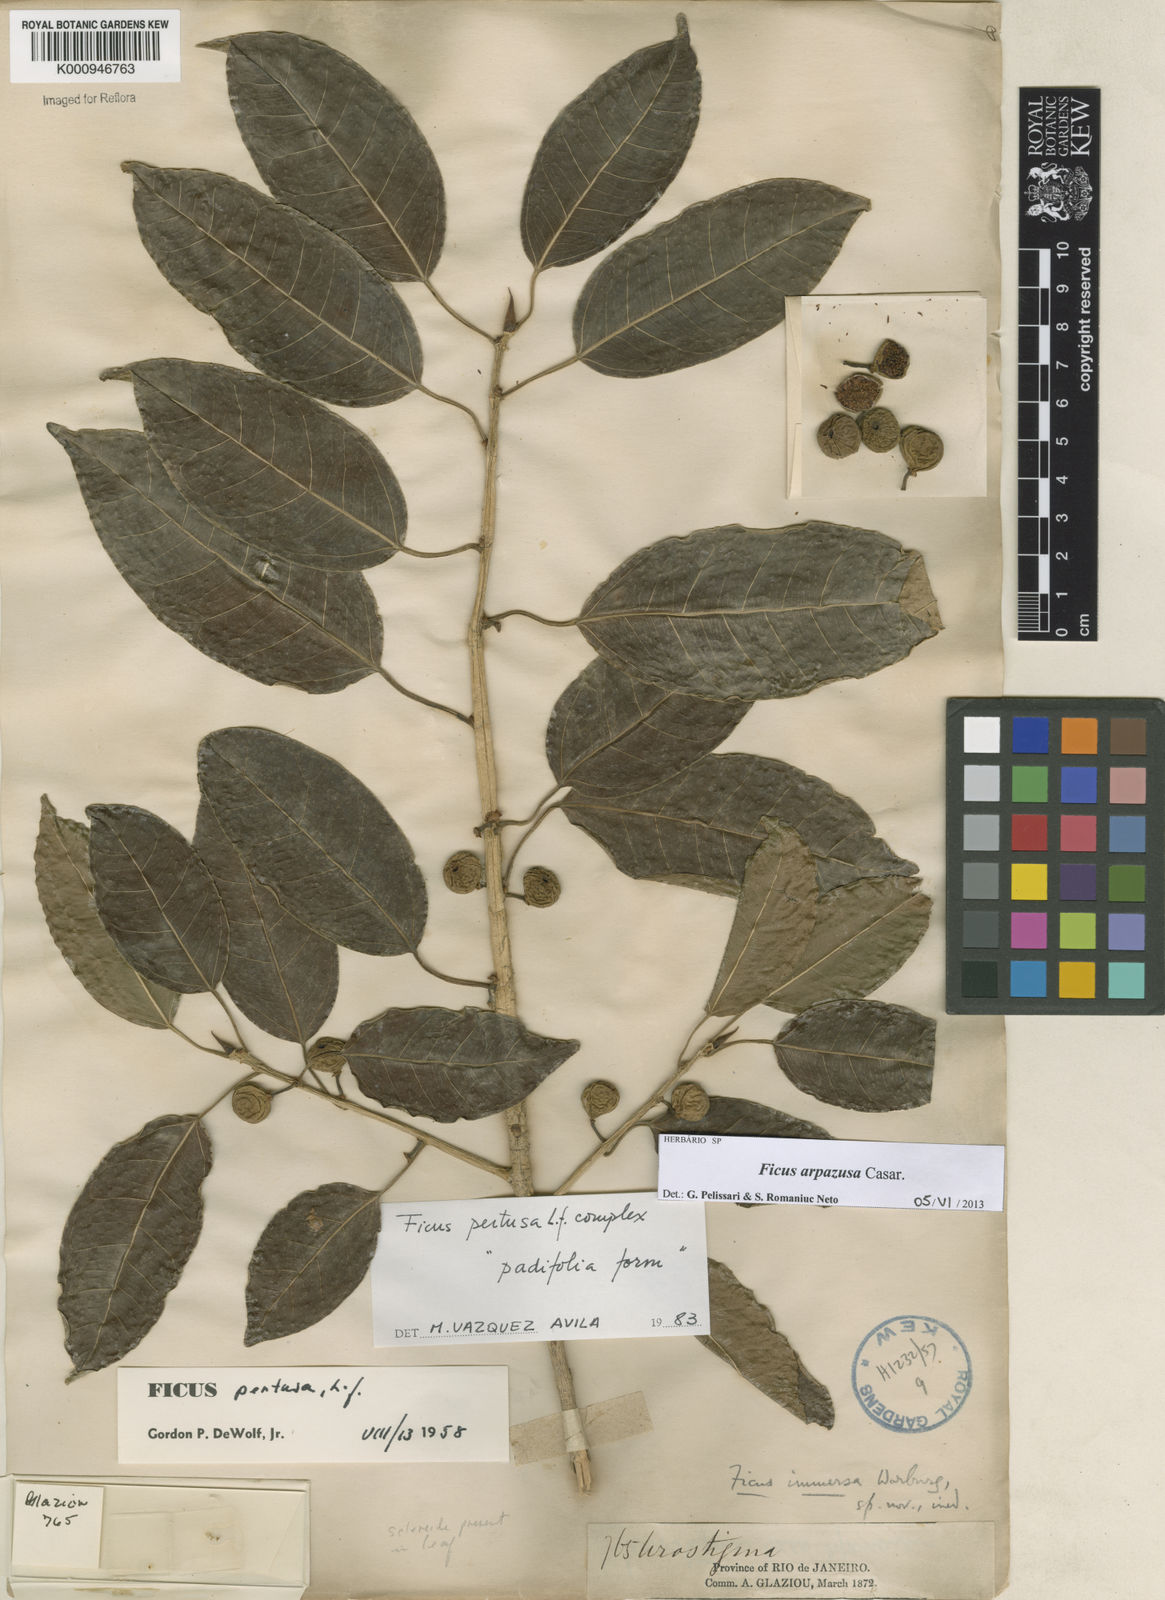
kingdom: Plantae
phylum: Tracheophyta
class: Magnoliopsida
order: Rosales
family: Moraceae
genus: Ficus
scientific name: Ficus arpazusa
